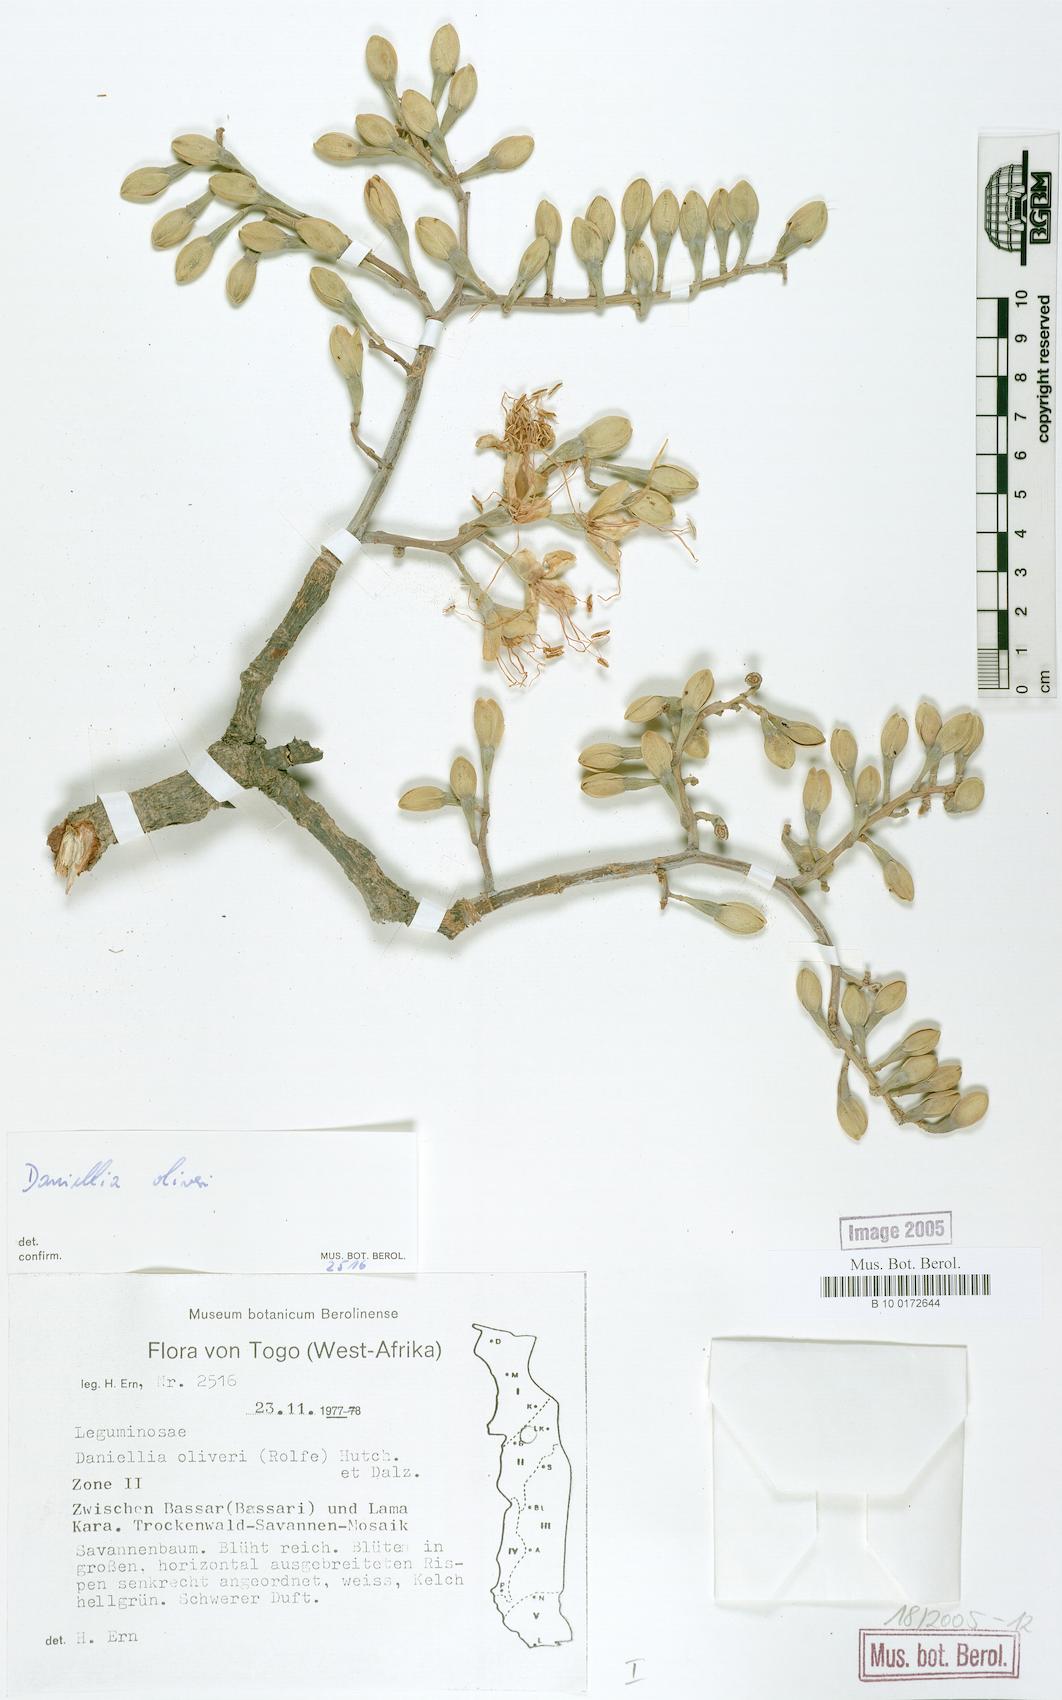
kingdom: Plantae
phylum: Tracheophyta
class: Magnoliopsida
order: Fabales
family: Fabaceae
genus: Daniellia
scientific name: Daniellia oliveri
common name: African copaiba balsamtree
